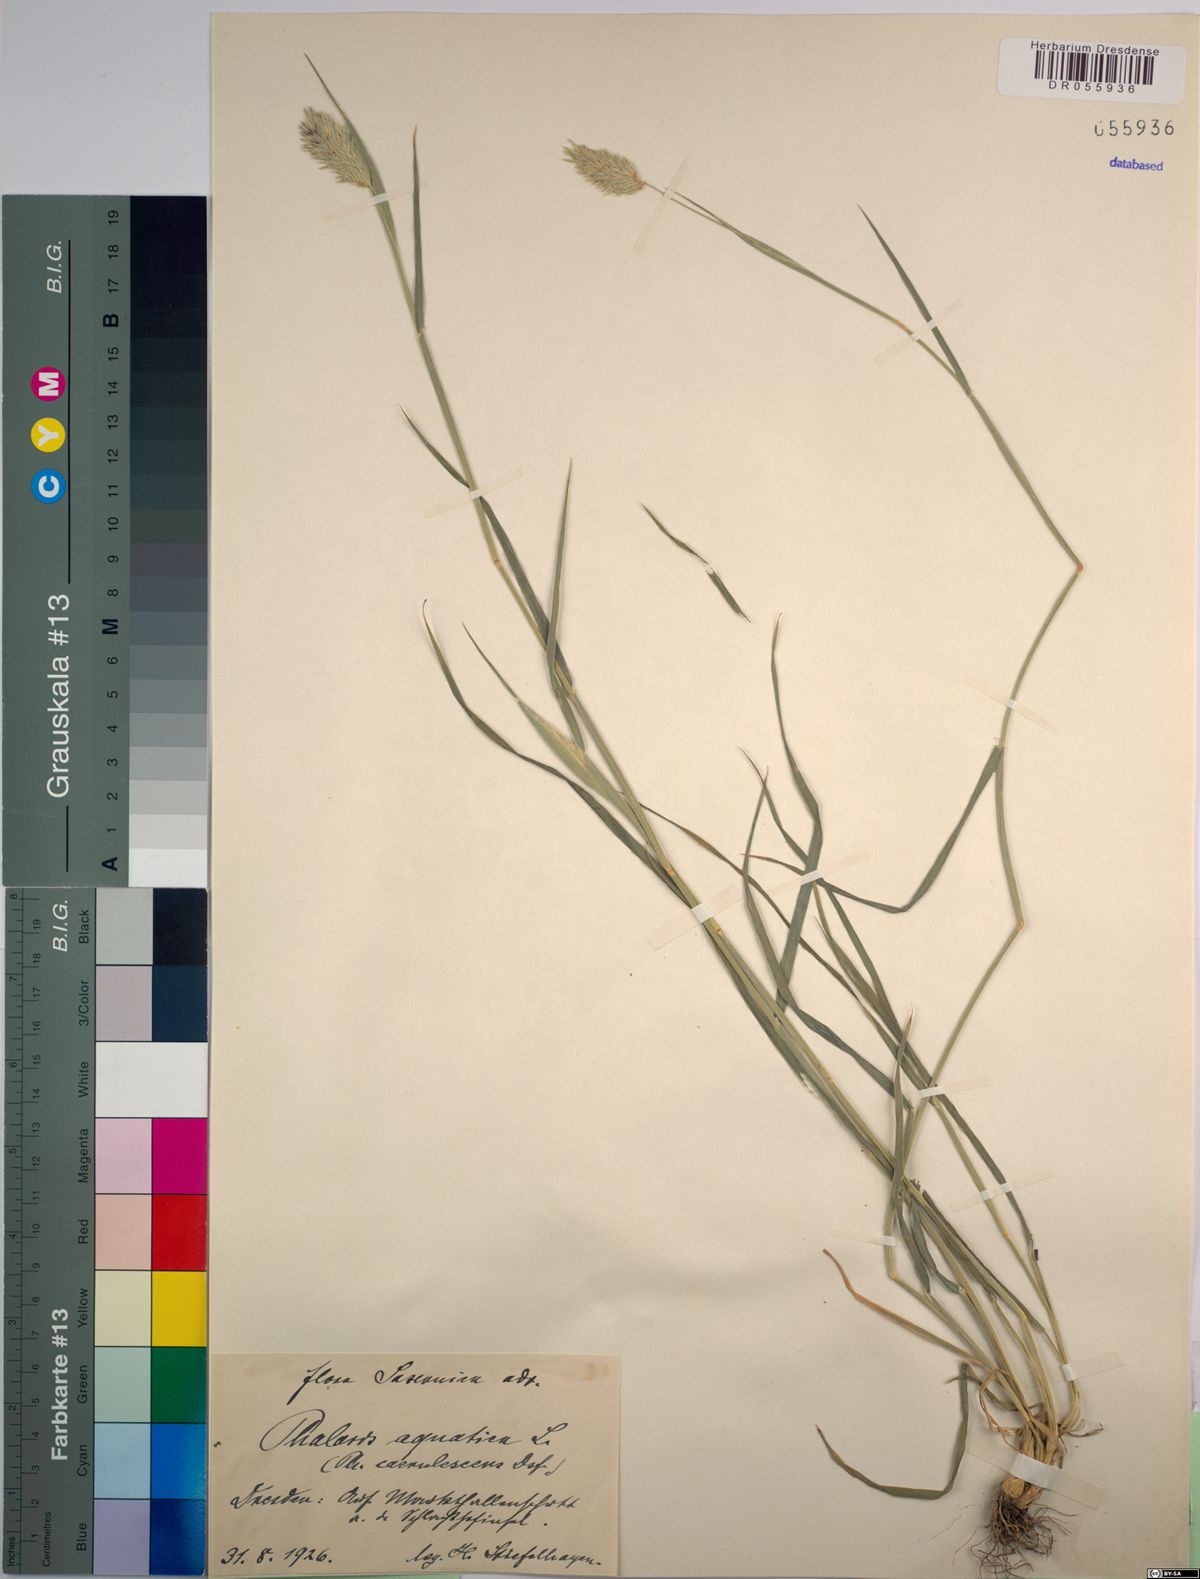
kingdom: Plantae
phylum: Tracheophyta
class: Liliopsida
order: Poales
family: Poaceae
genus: Phalaris
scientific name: Phalaris aquatica
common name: Bulbous canary-grass
